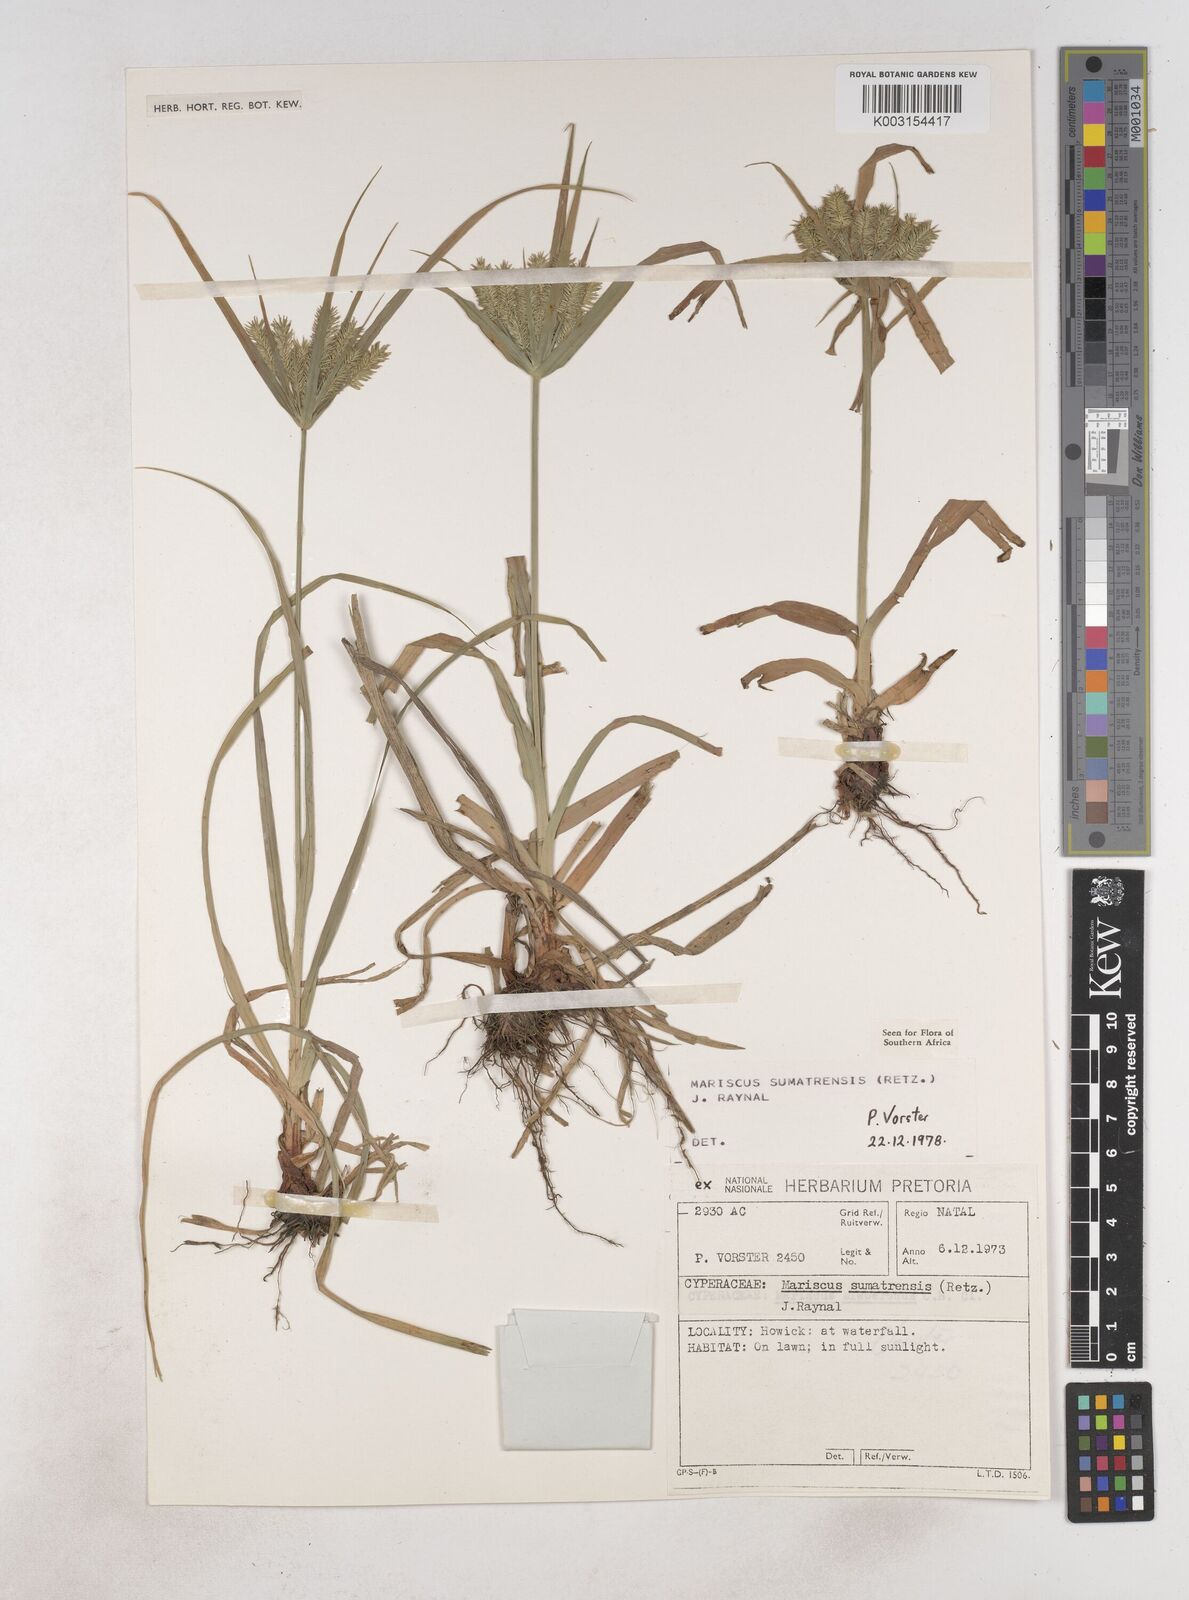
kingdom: Plantae
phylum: Tracheophyta
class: Liliopsida
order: Poales
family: Cyperaceae
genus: Cyperus
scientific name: Cyperus cyperoides
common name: Pacific island flat sedge
